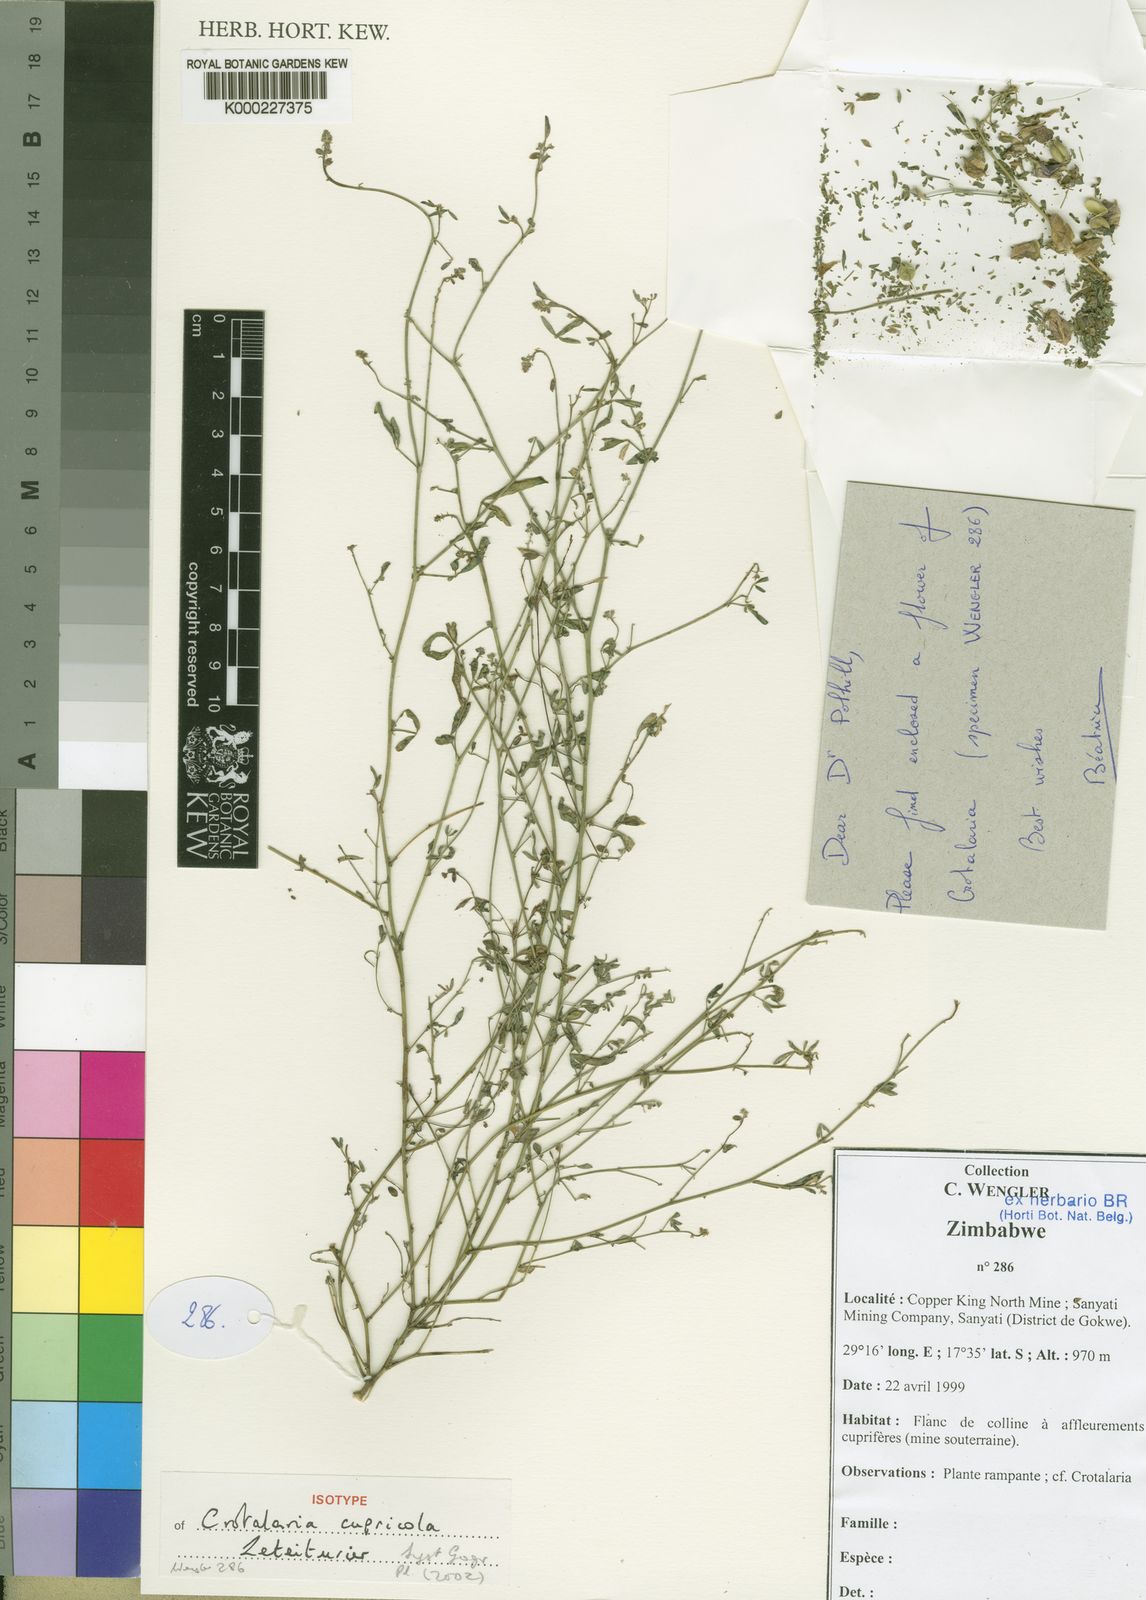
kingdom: Plantae
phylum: Tracheophyta
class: Magnoliopsida
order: Fabales
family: Fabaceae
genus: Crotalaria
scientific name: Crotalaria cupricola
